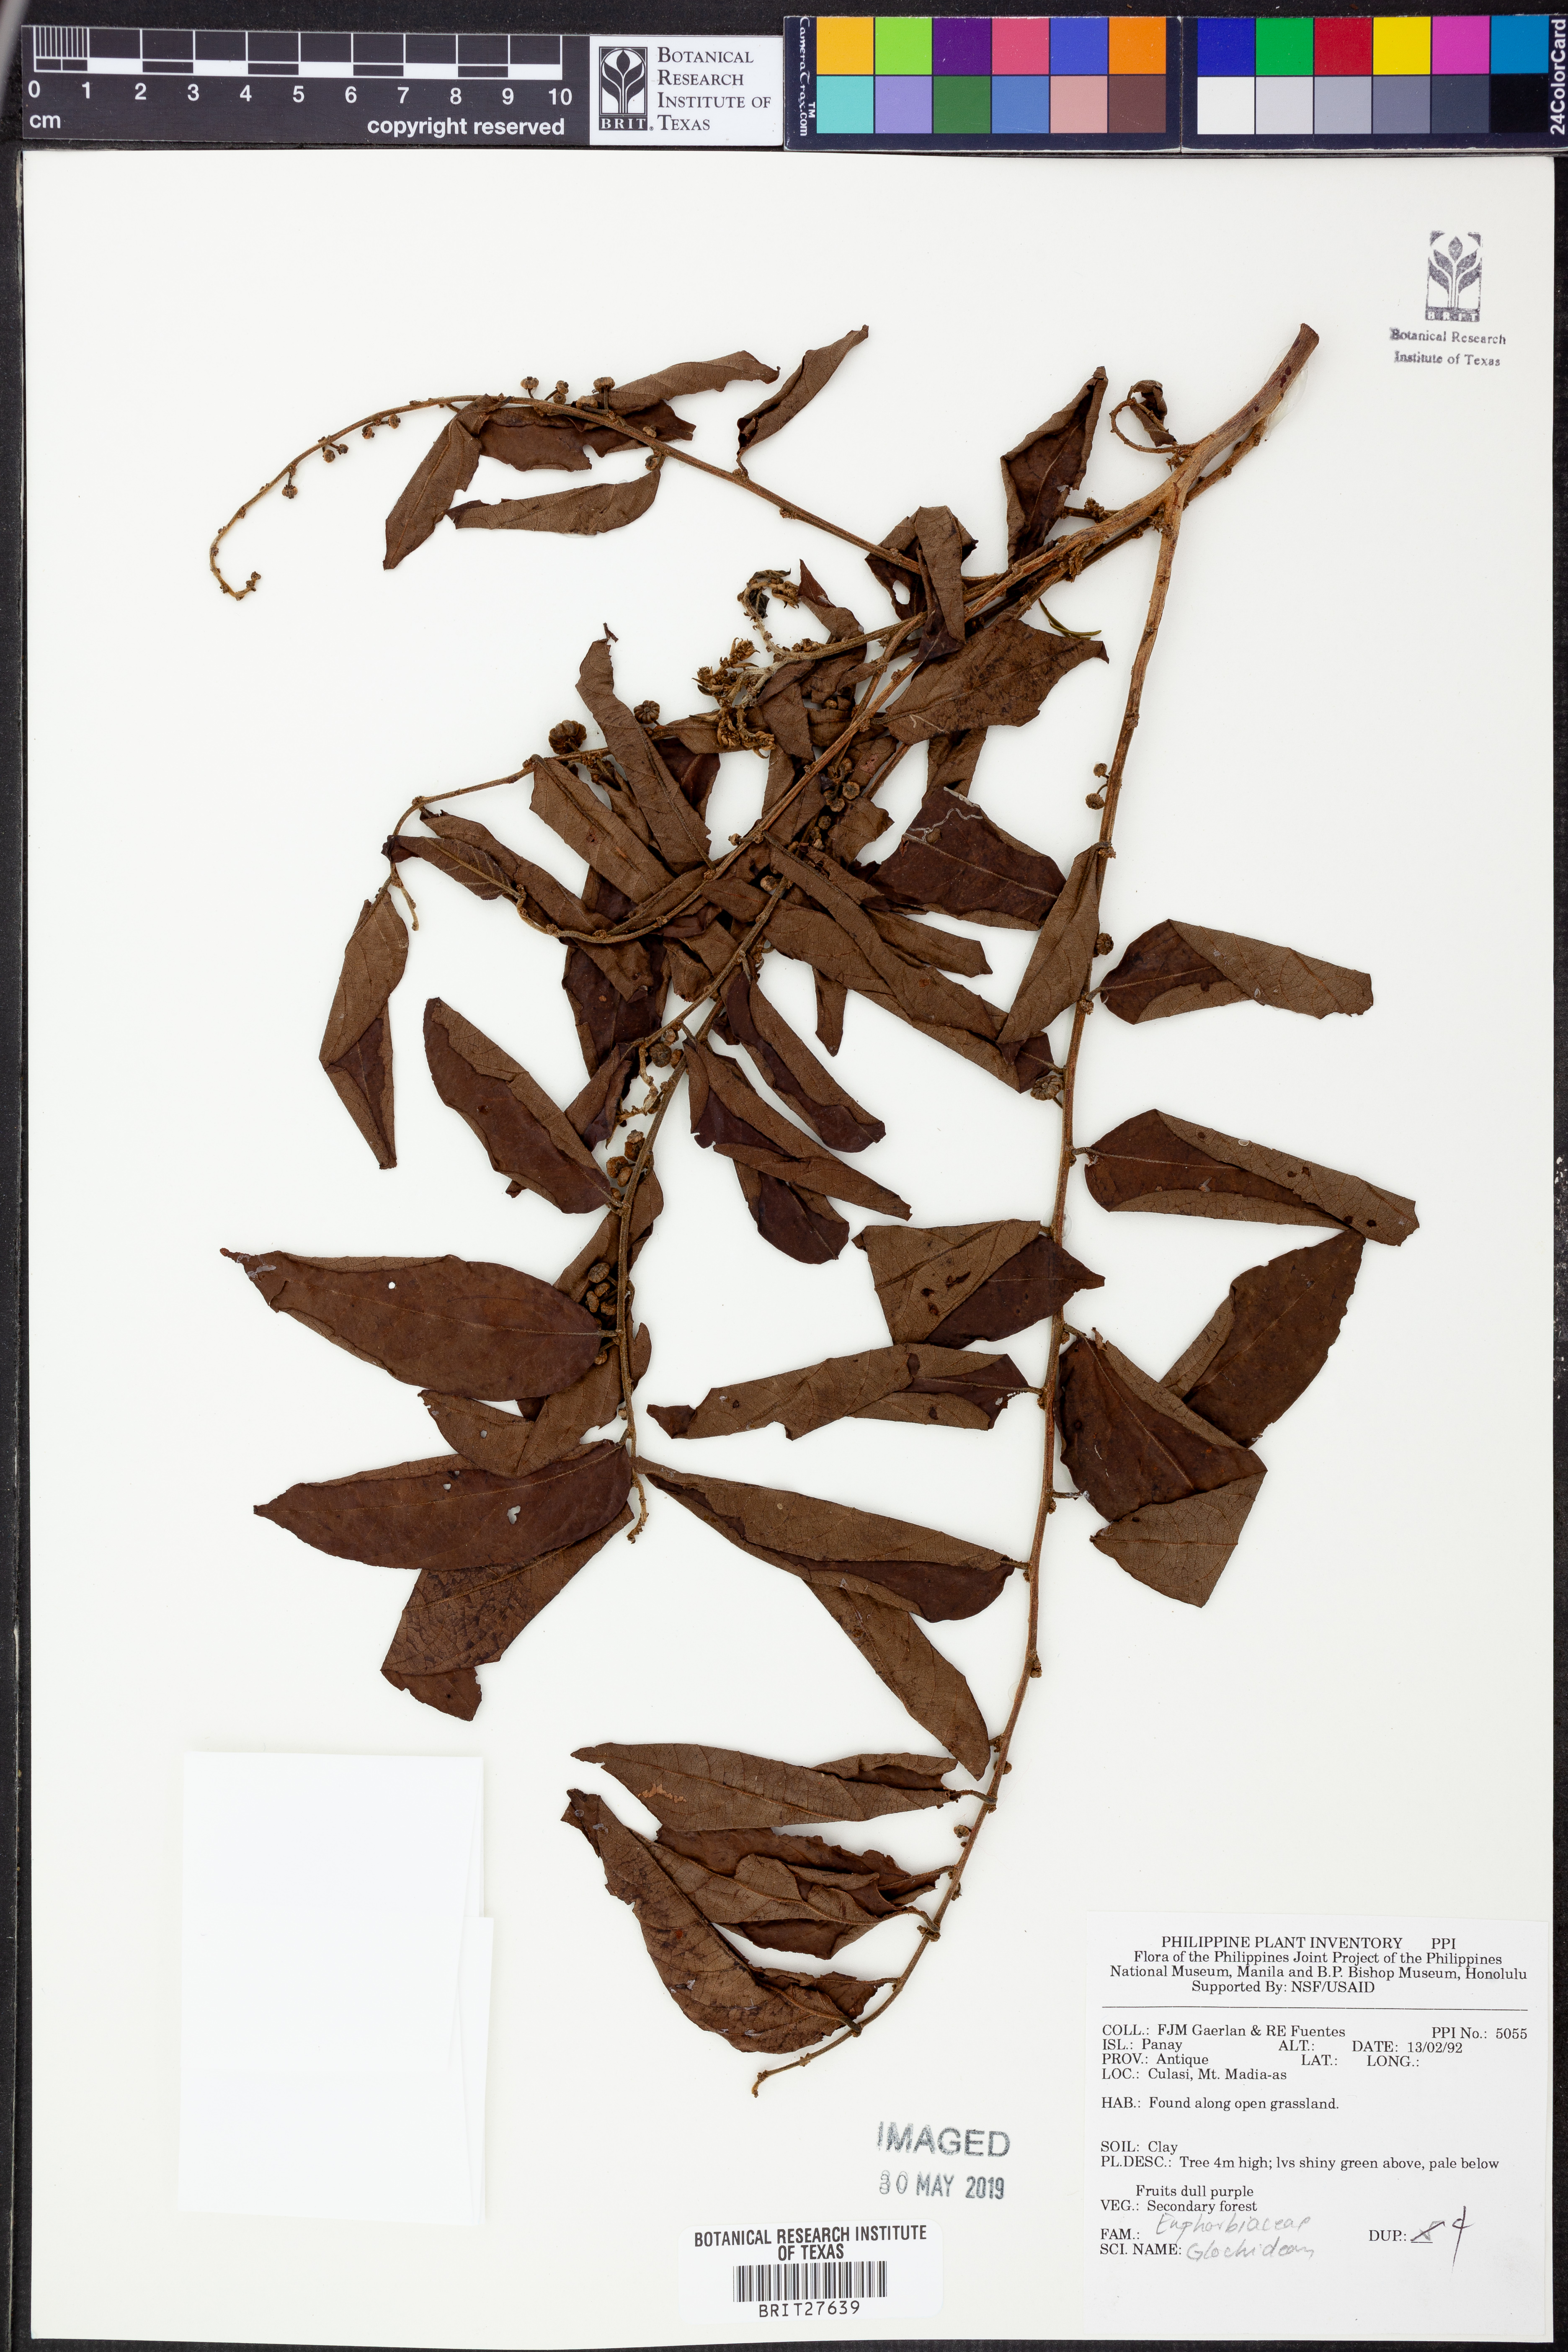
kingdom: Plantae
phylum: Tracheophyta
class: Magnoliopsida
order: Malpighiales
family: Phyllanthaceae
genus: Glochidion
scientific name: Glochidion
